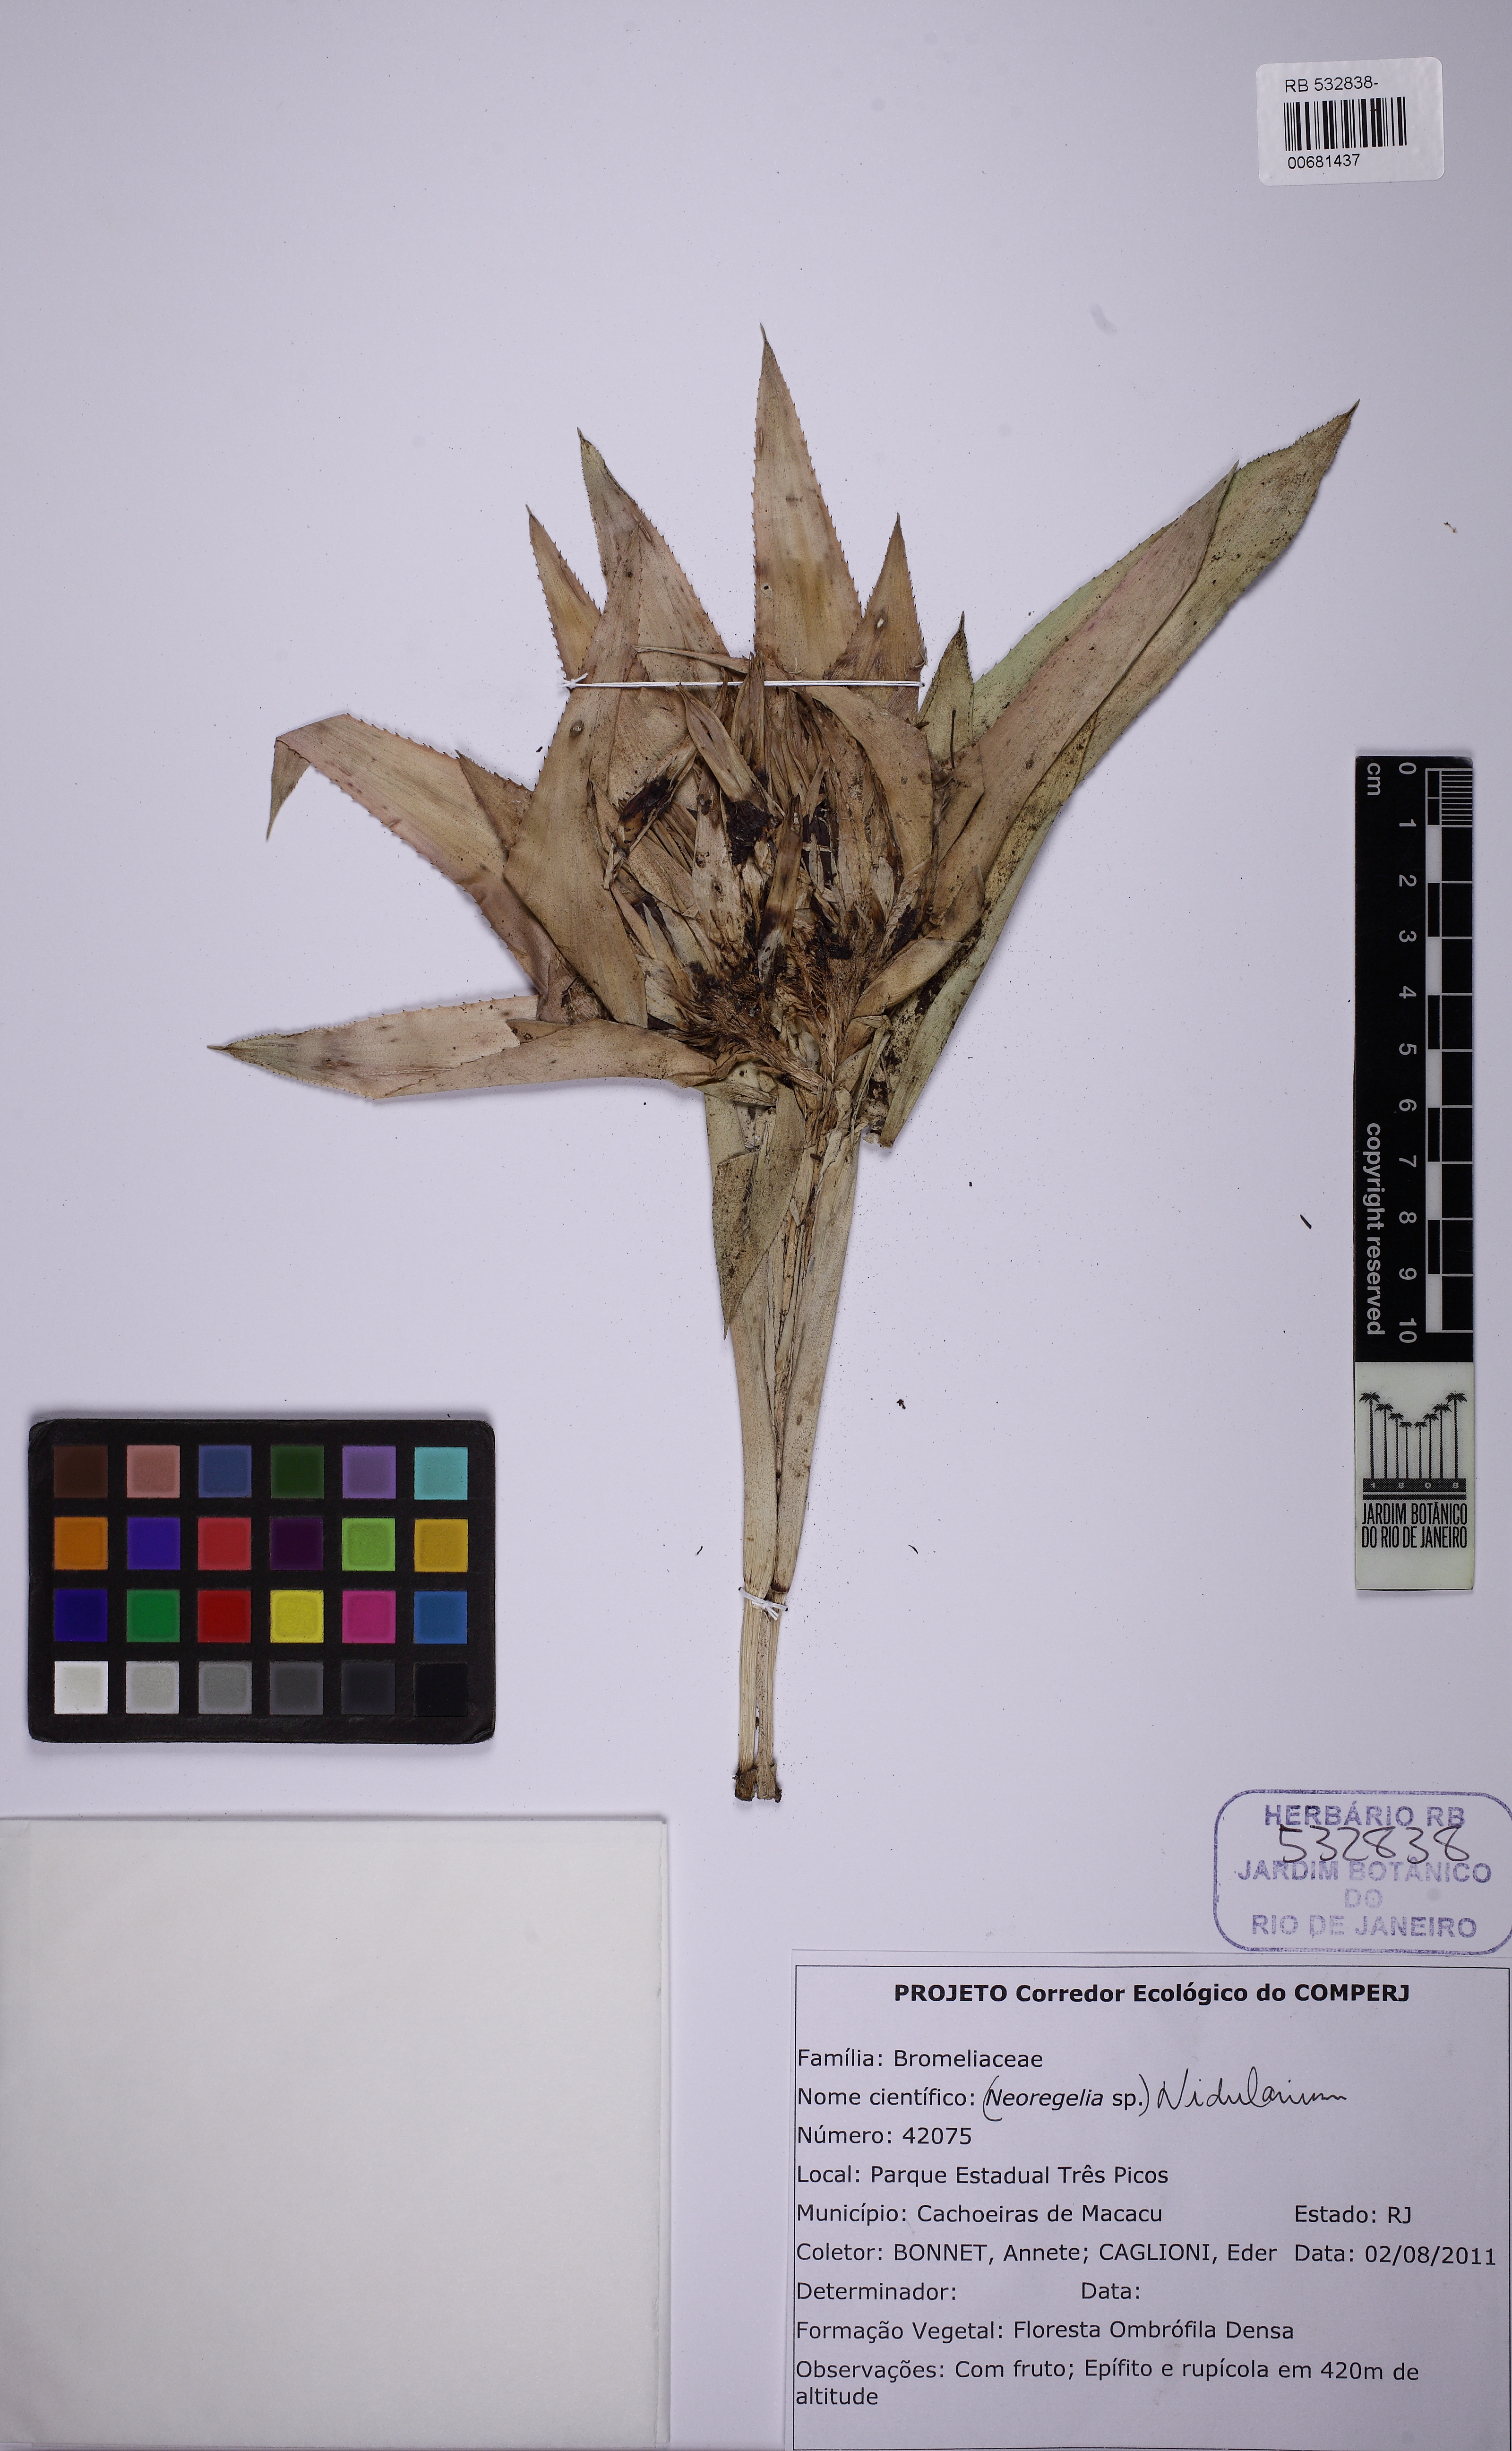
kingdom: Plantae
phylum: Tracheophyta
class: Liliopsida
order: Poales
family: Bromeliaceae
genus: Nidularium
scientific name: Nidularium
